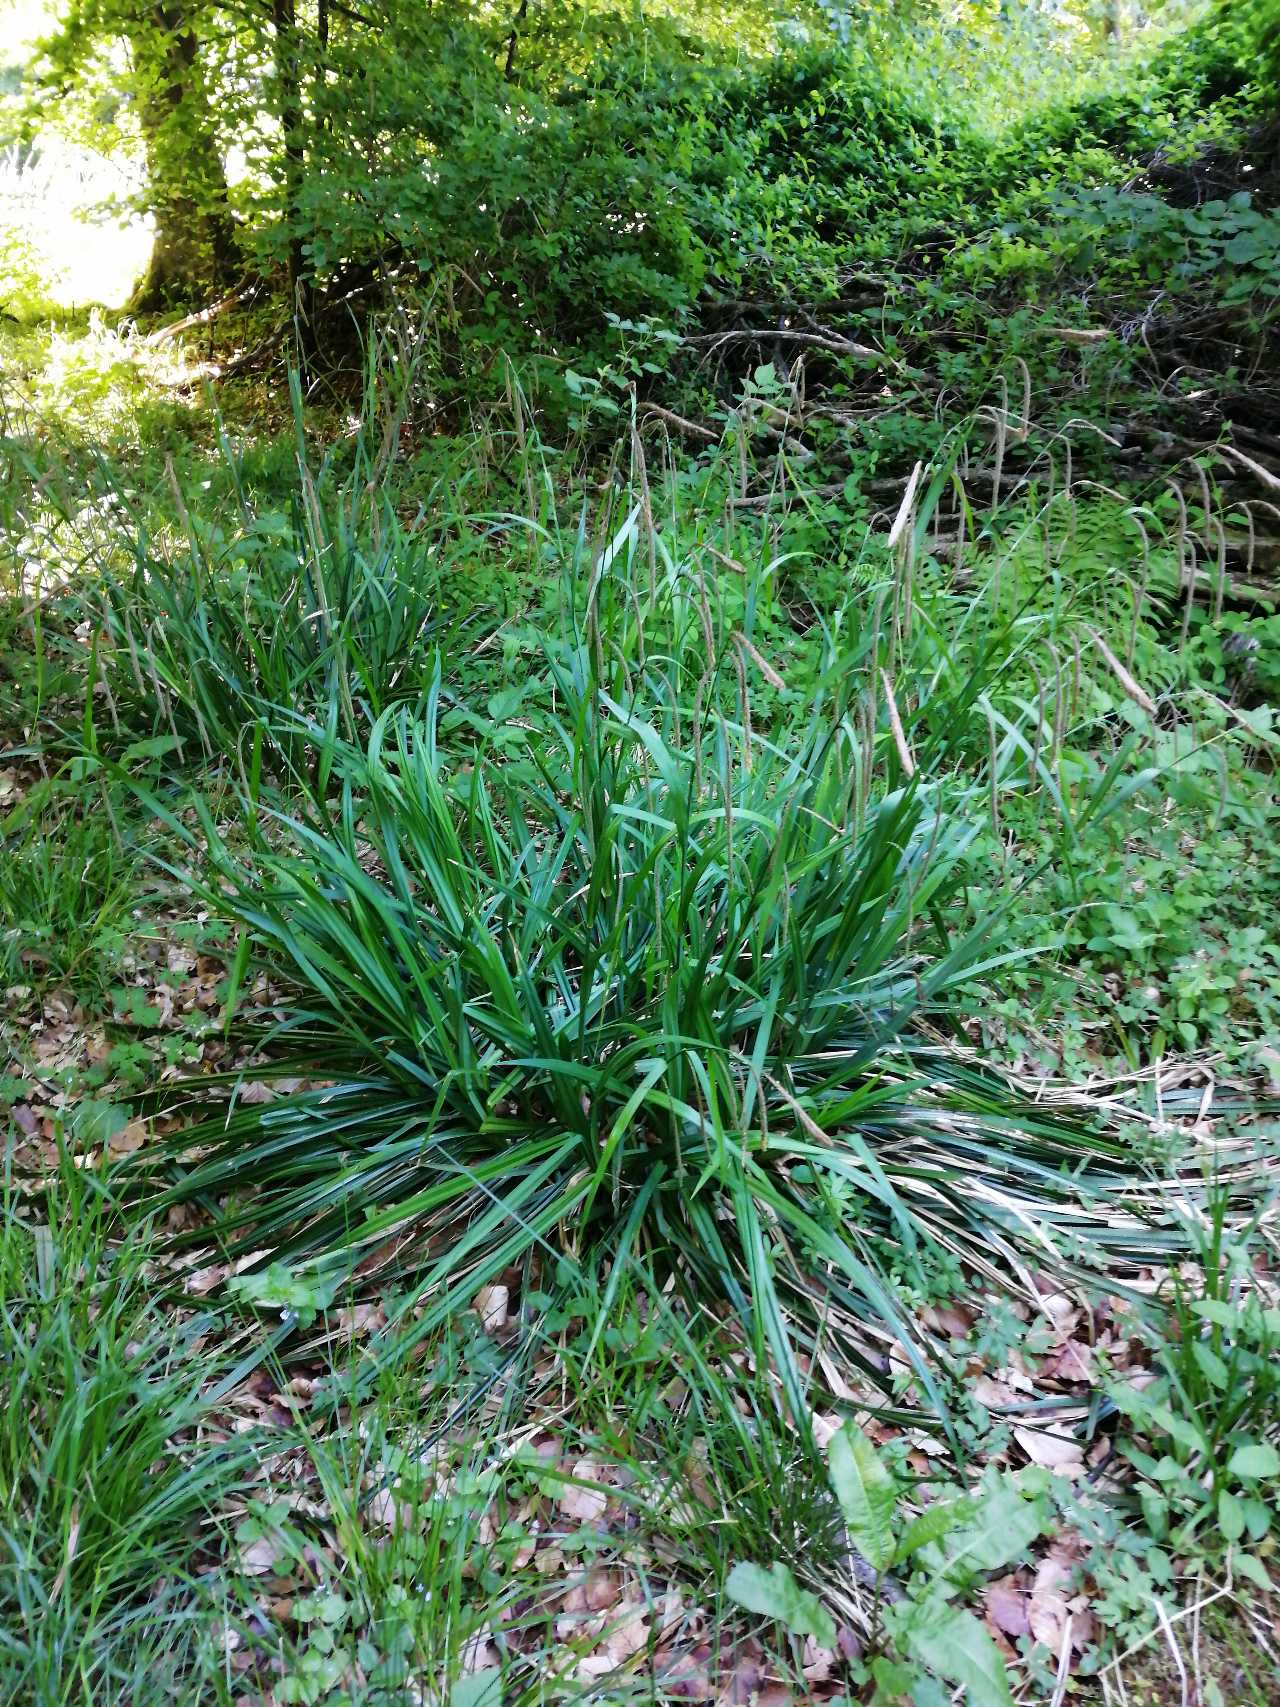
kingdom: Plantae
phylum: Tracheophyta
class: Liliopsida
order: Poales
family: Cyperaceae
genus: Carex
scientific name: Carex pendula
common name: Kæmpe-star
